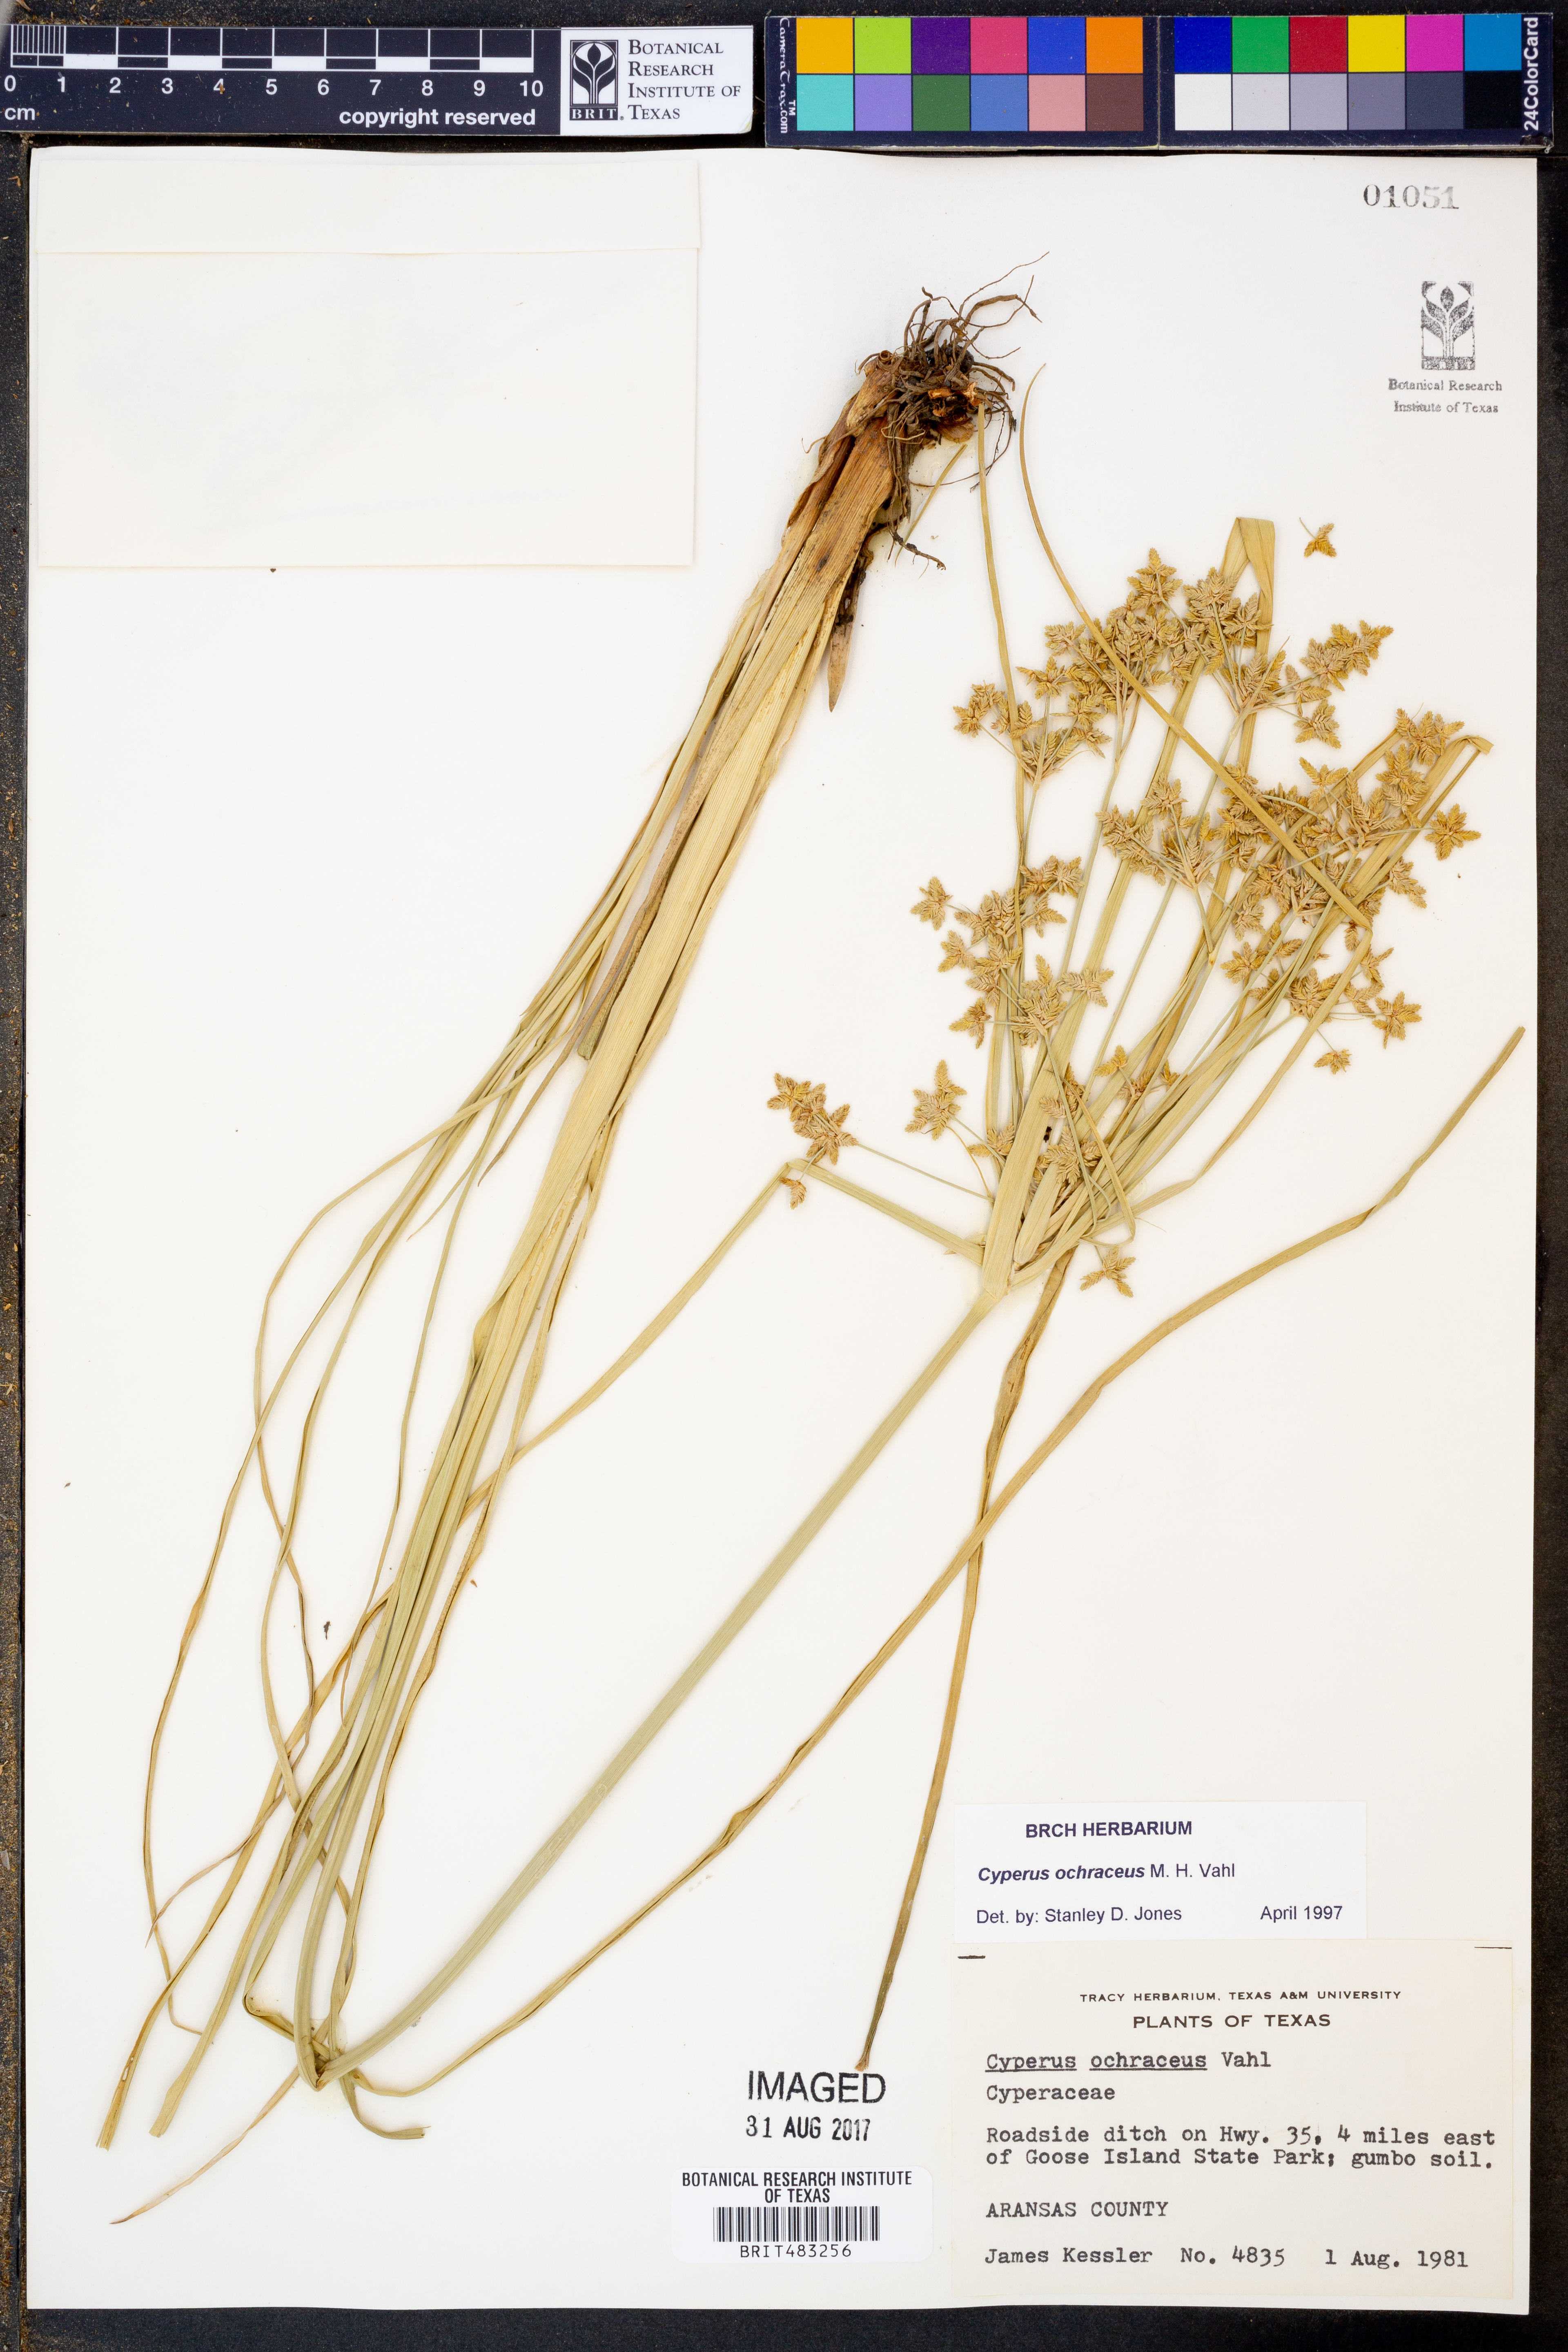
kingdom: Plantae
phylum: Tracheophyta
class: Liliopsida
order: Poales
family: Cyperaceae
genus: Cyperus
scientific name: Cyperus ochraceus
